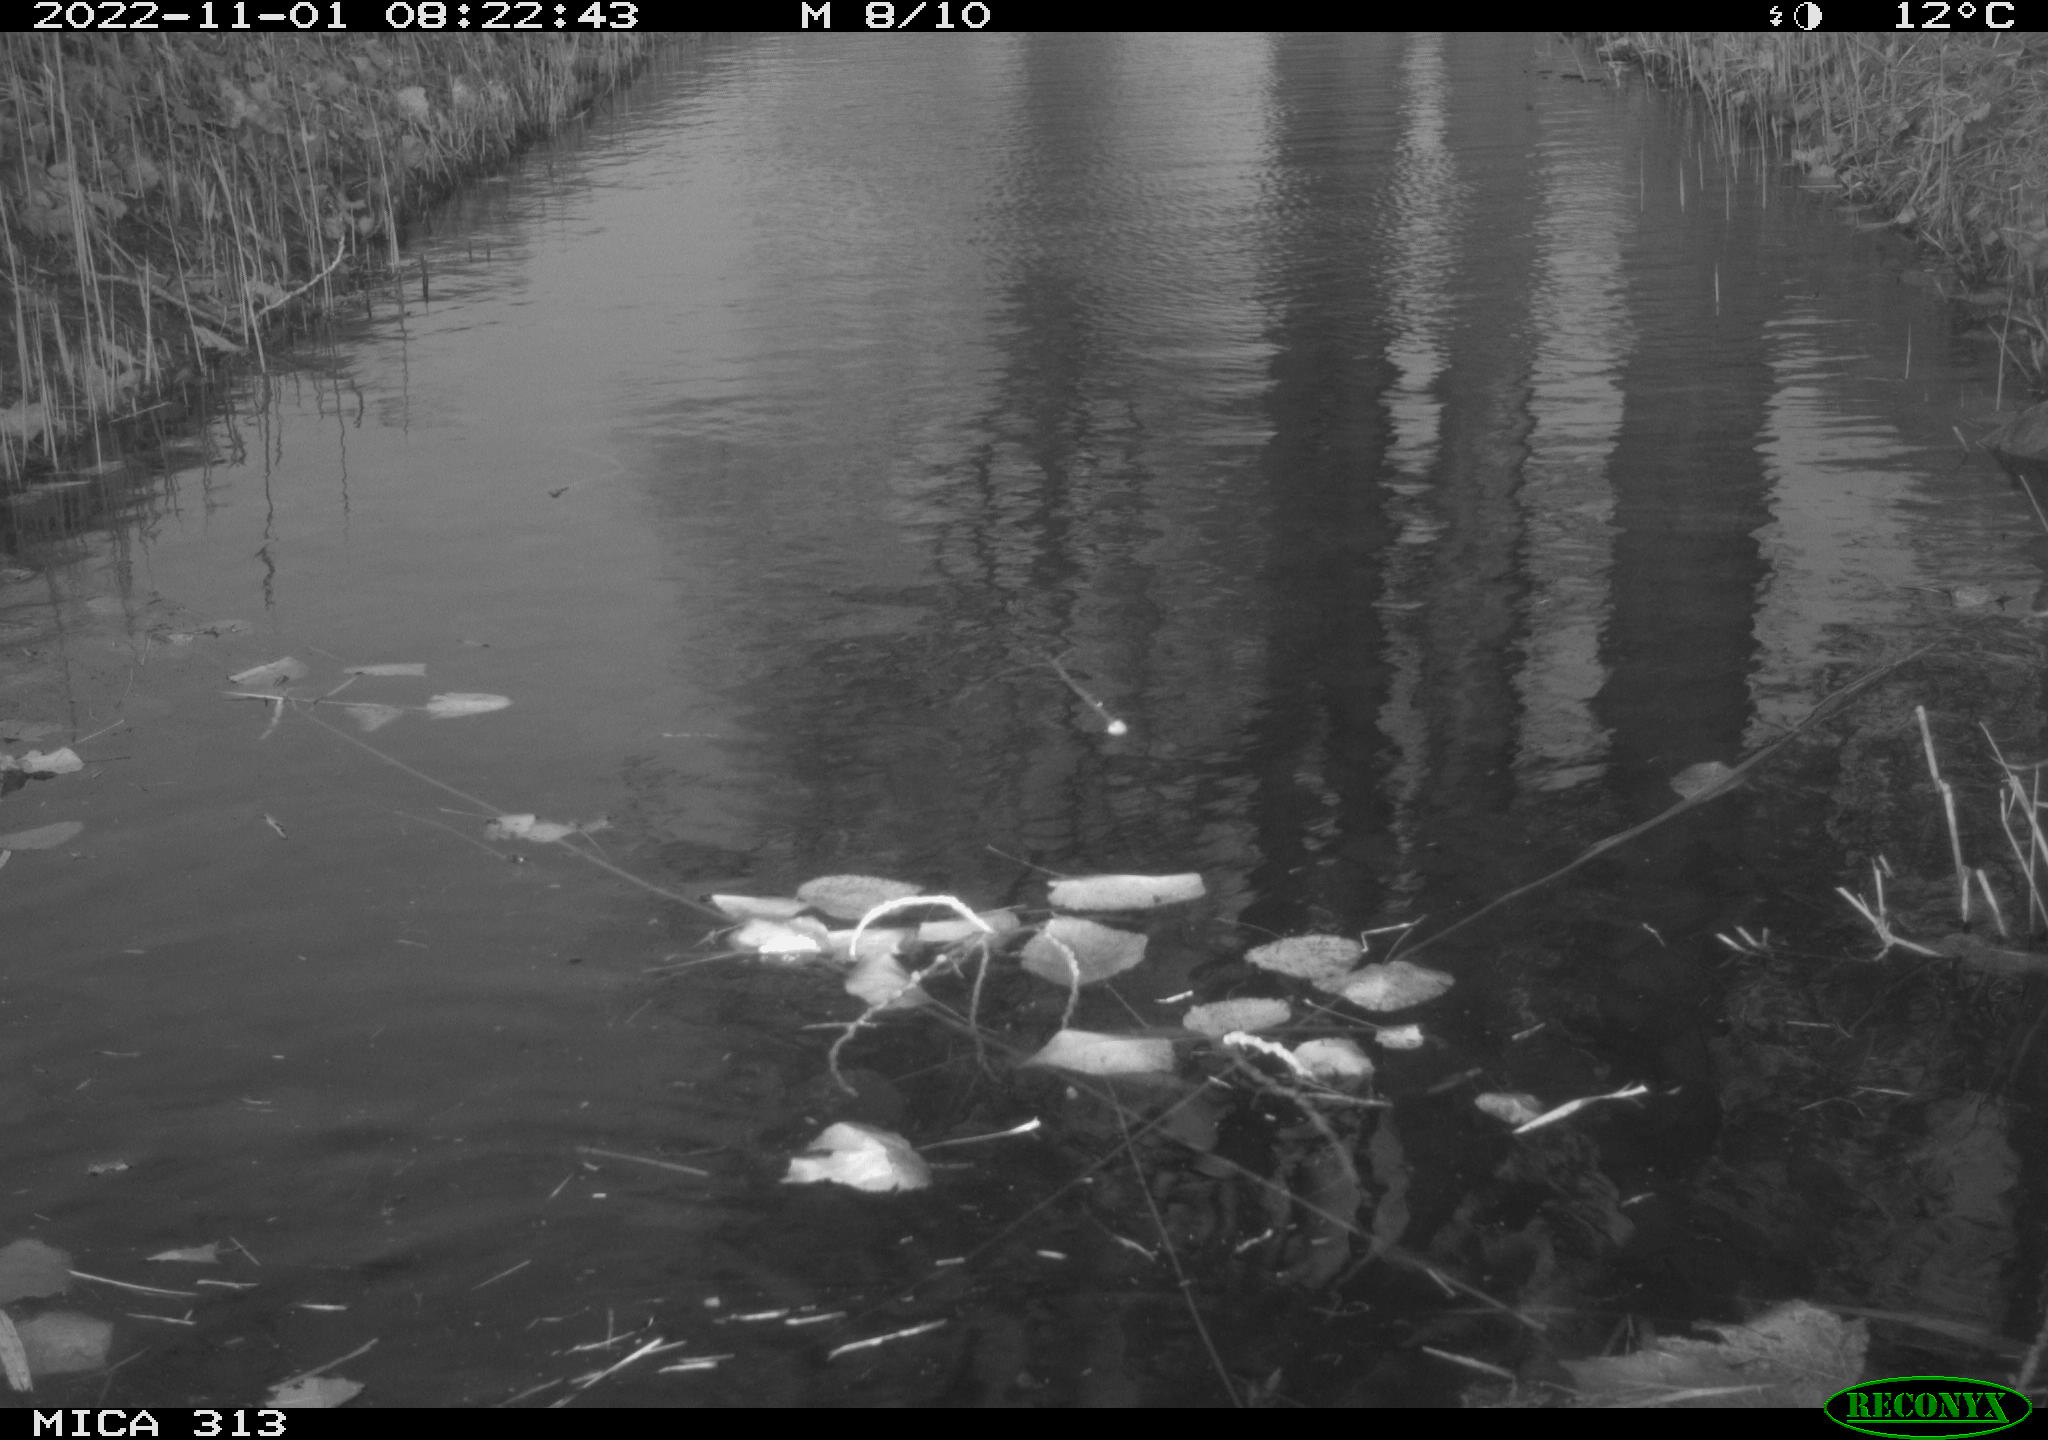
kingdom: Animalia
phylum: Chordata
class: Aves
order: Gruiformes
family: Rallidae
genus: Gallinula
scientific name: Gallinula chloropus
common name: Common moorhen
